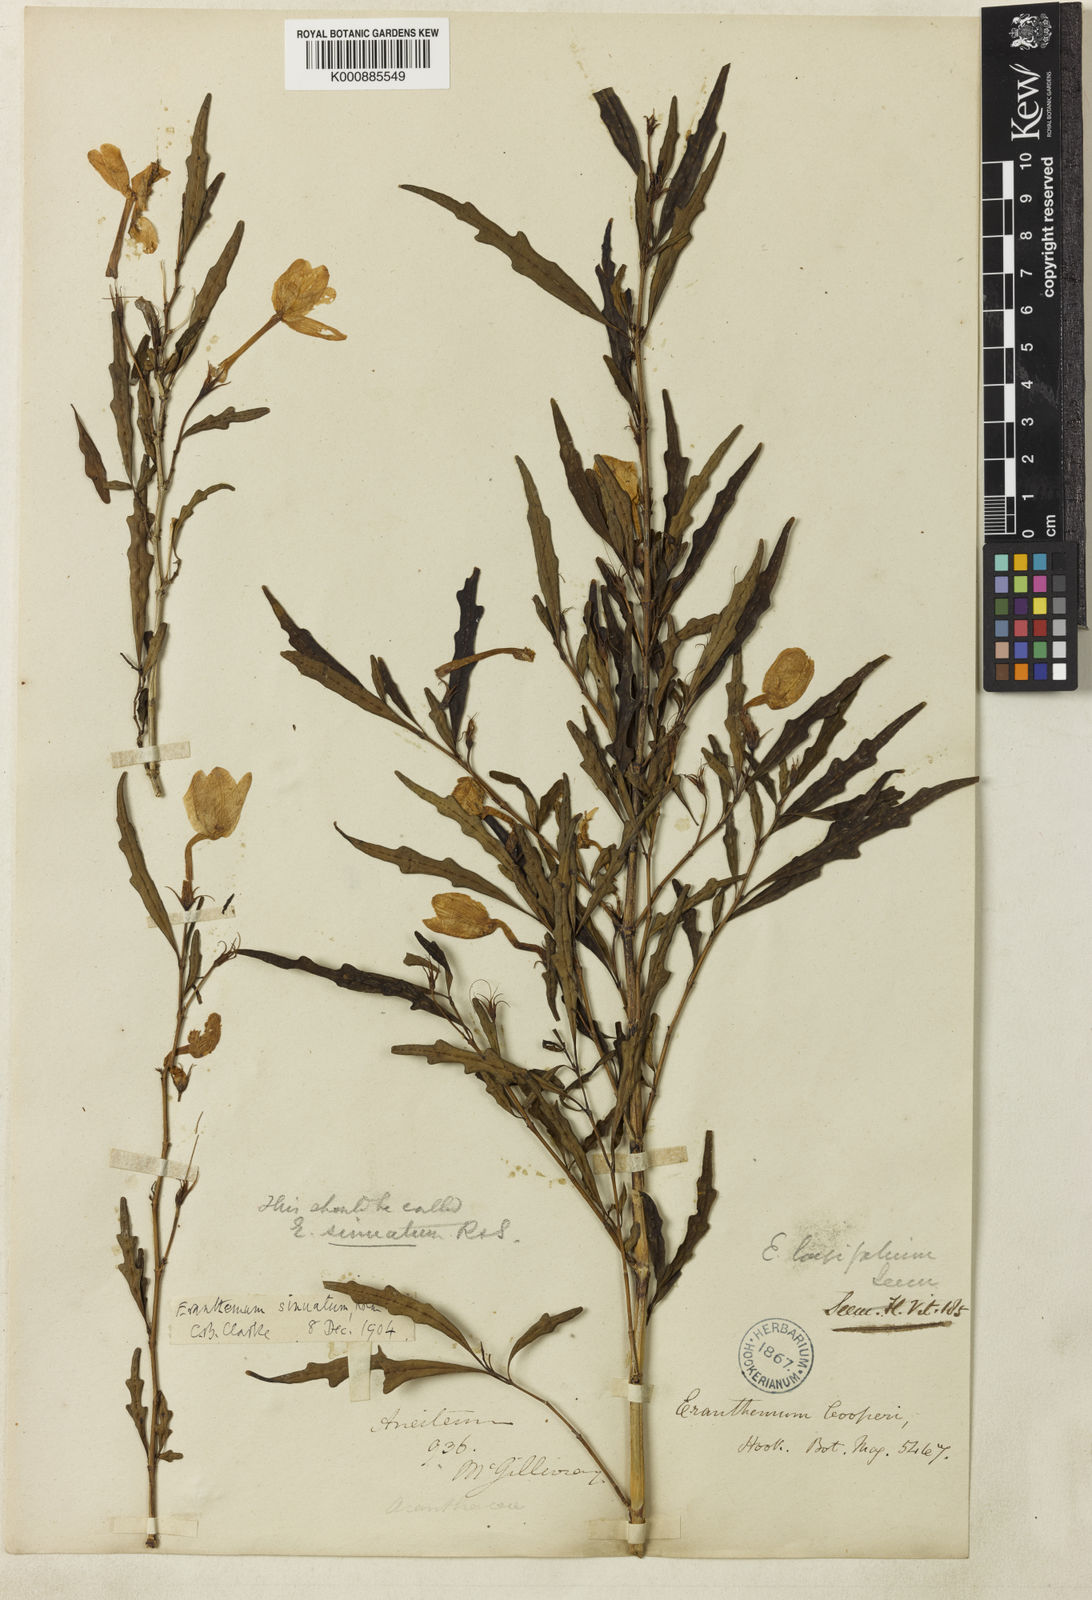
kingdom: Plantae
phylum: Tracheophyta
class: Magnoliopsida
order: Lamiales
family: Acanthaceae
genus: Pseuderanthemum
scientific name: Pseuderanthemum longifolium
